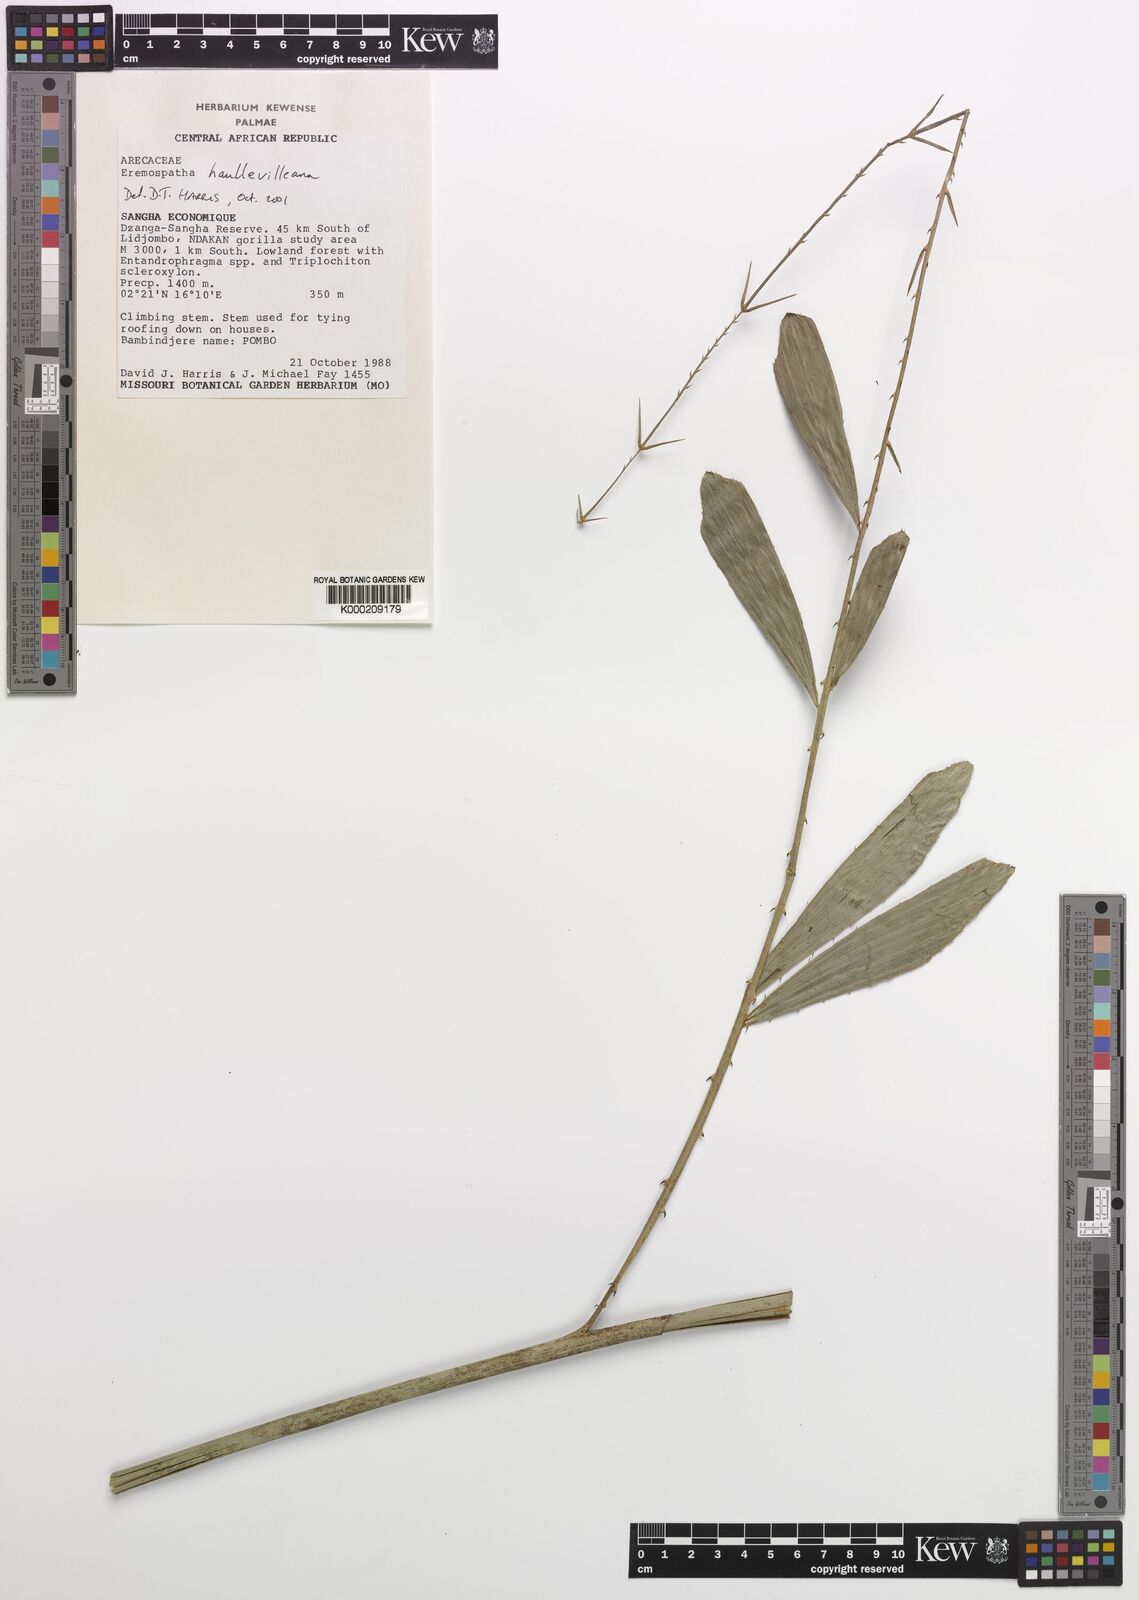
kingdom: Plantae
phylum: Tracheophyta
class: Liliopsida
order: Arecales
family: Arecaceae
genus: Eremospatha
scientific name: Eremospatha haullevilleana
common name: Rattan
